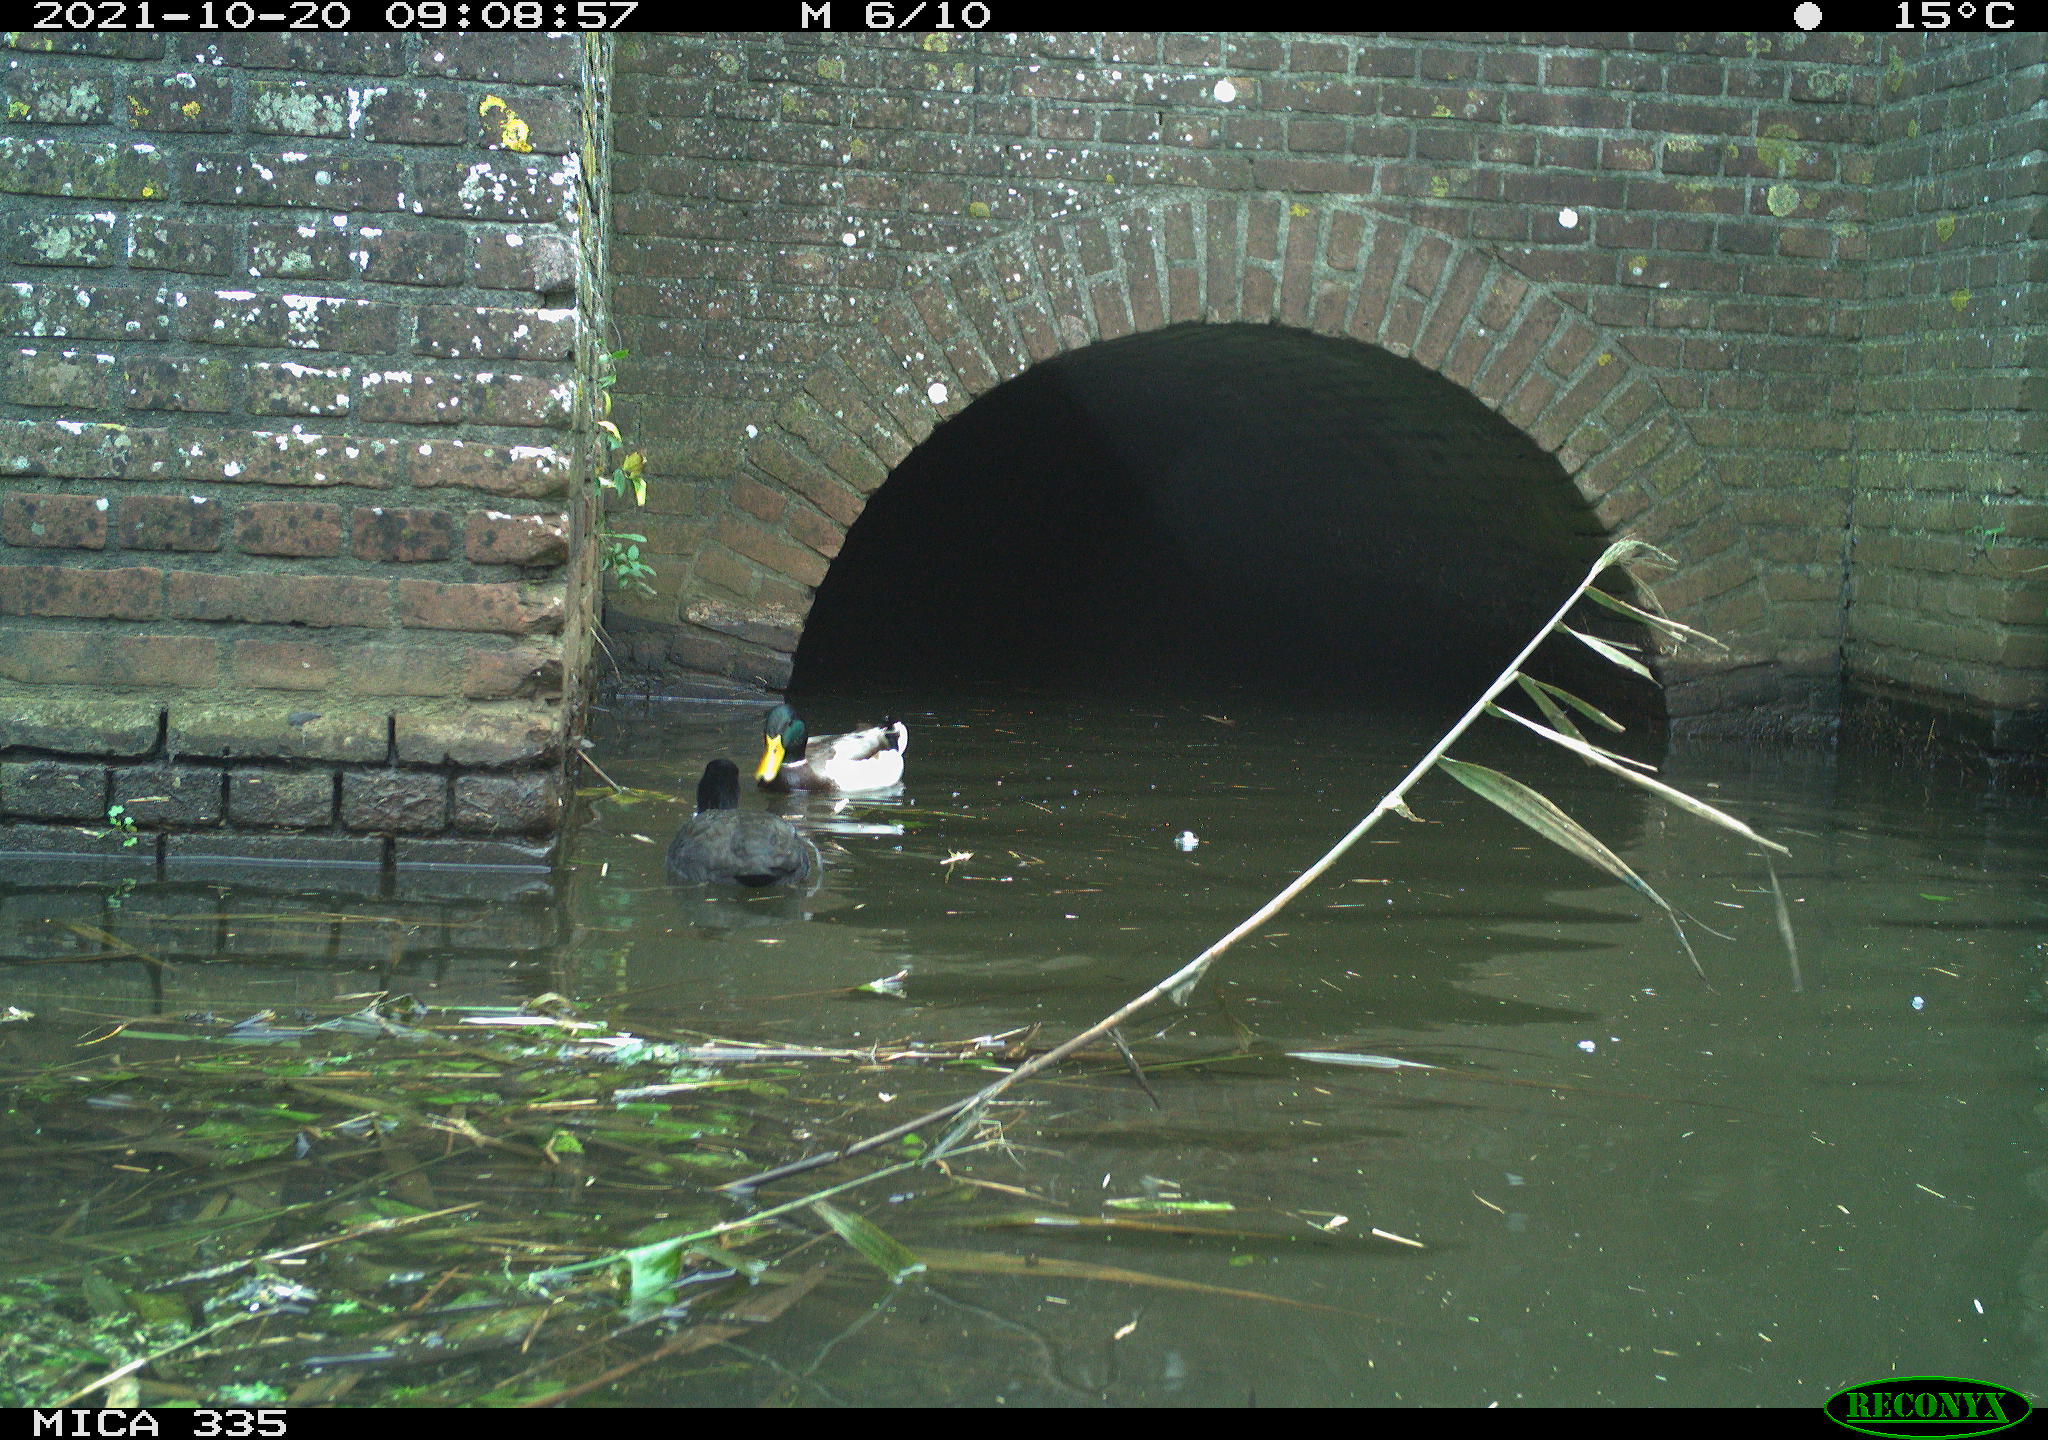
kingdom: Animalia
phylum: Chordata
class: Aves
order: Anseriformes
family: Anatidae
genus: Anas
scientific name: Anas platyrhynchos
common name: Mallard
